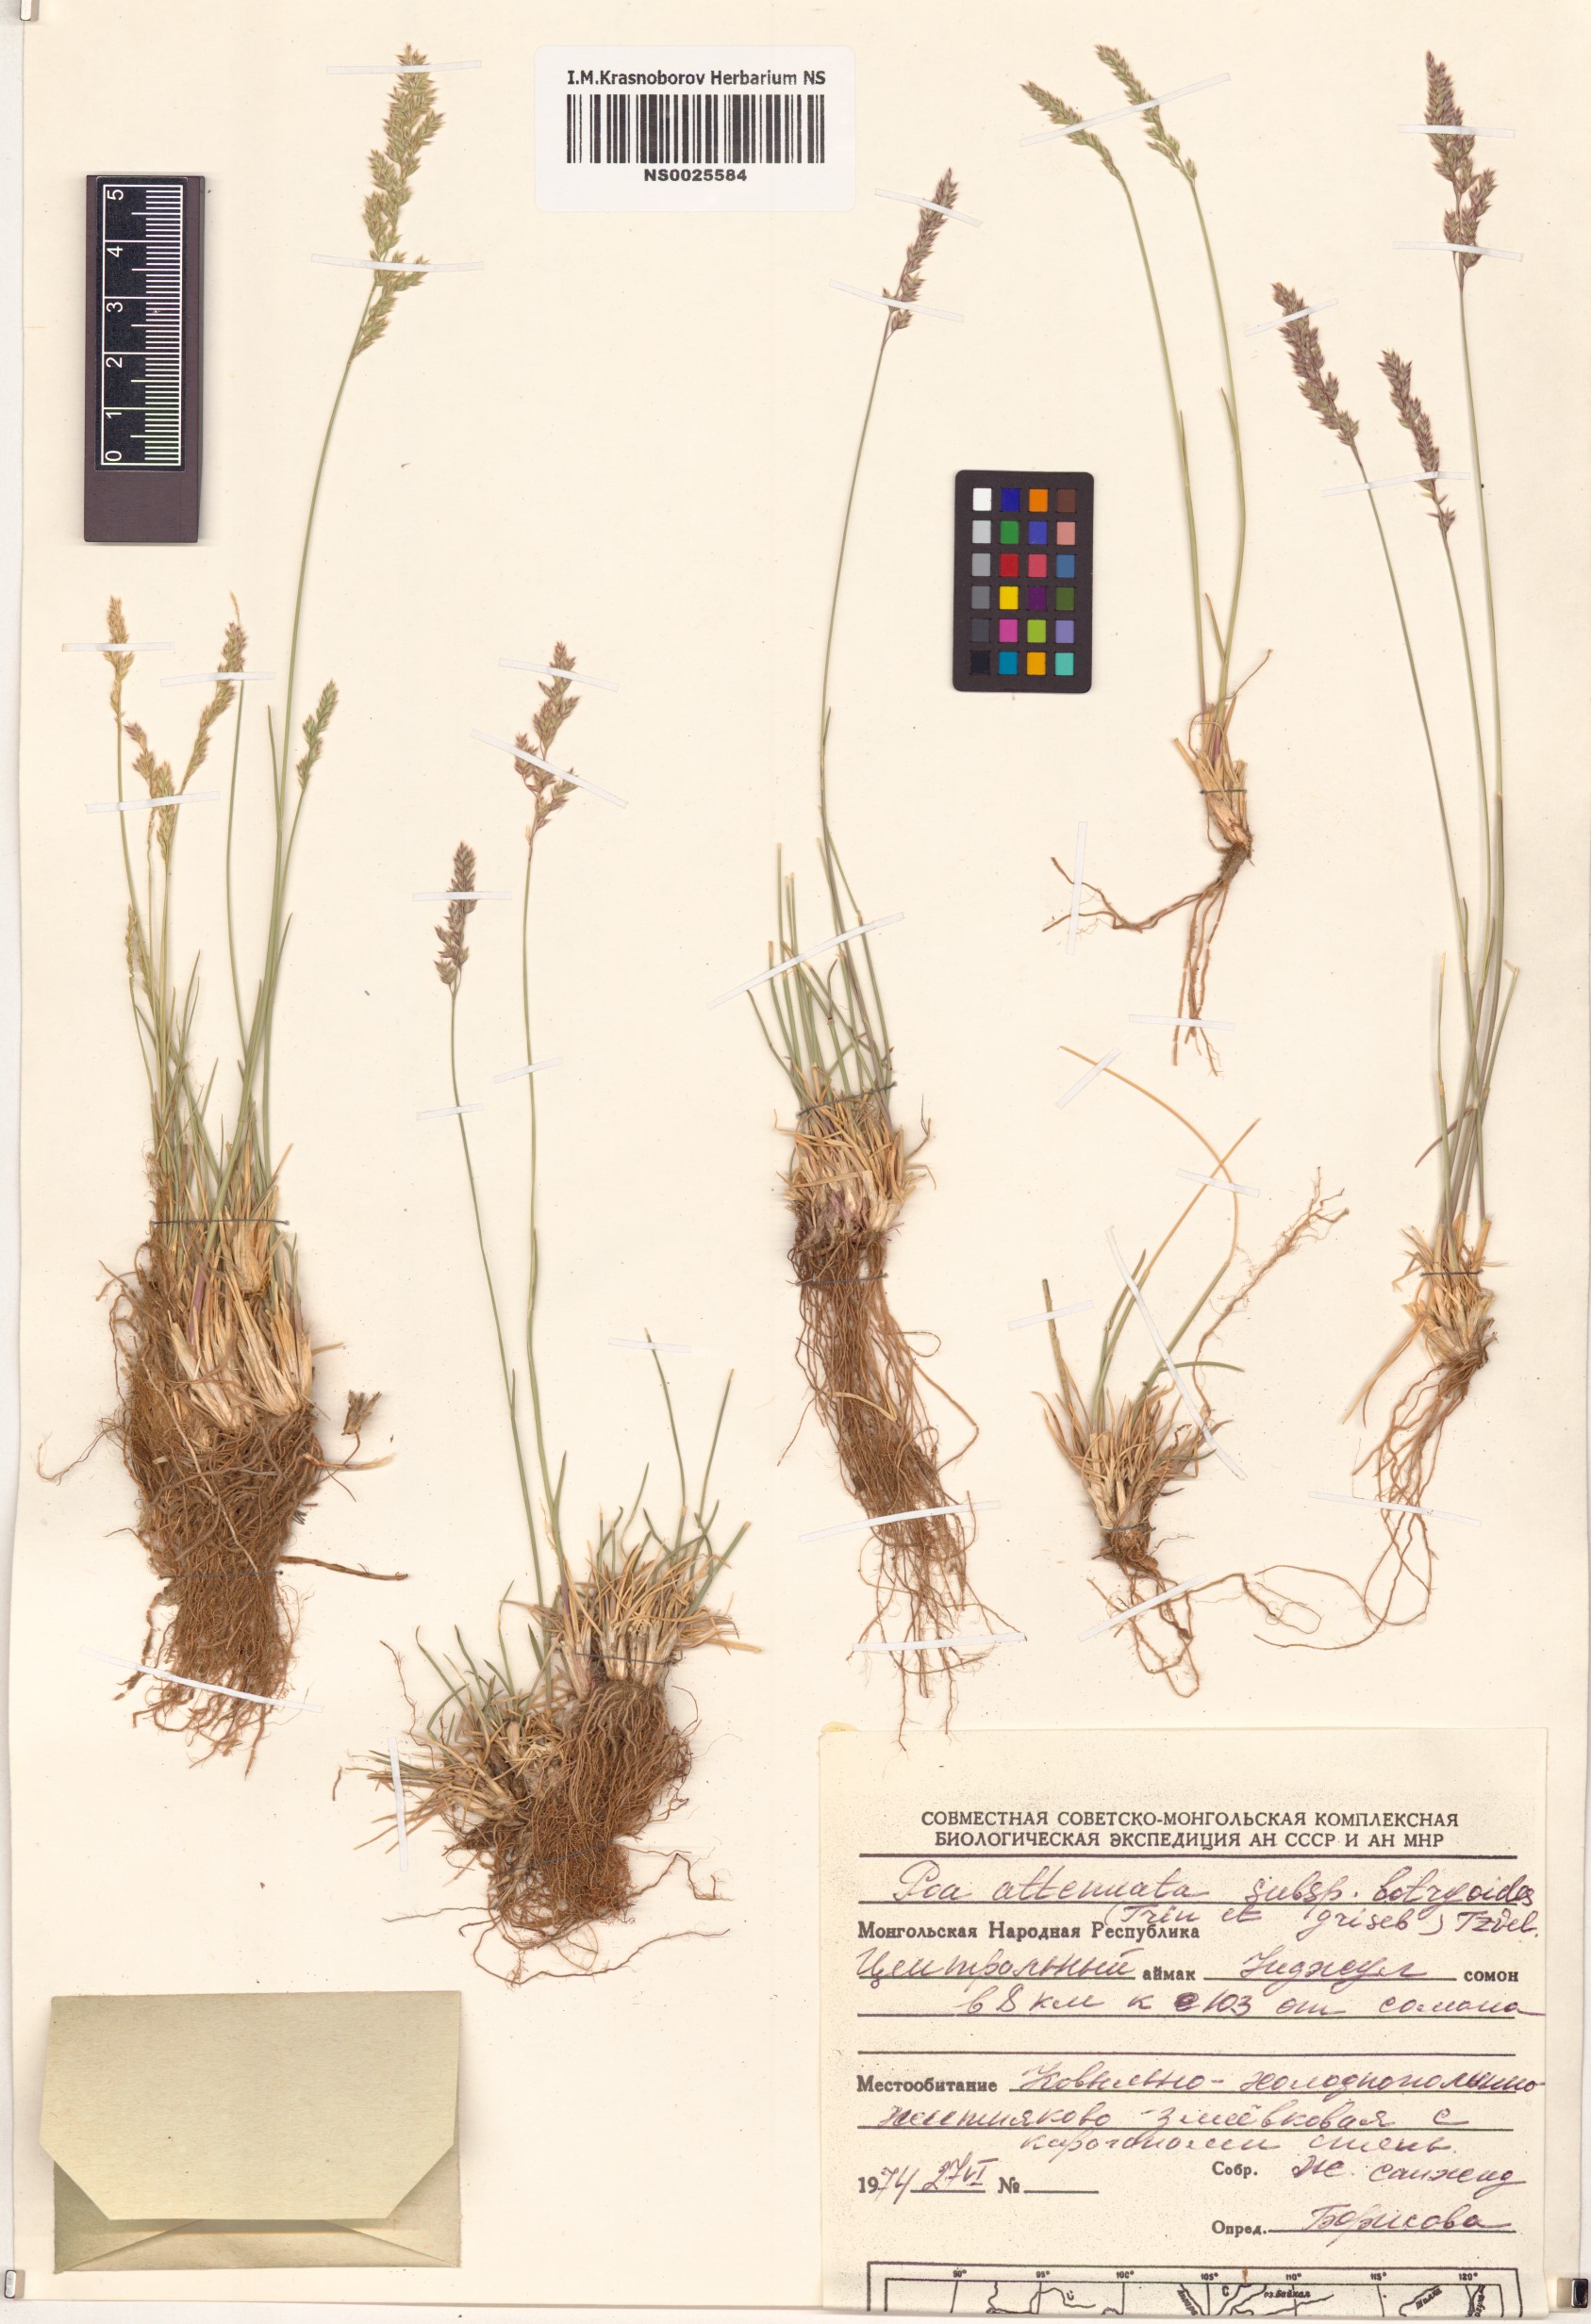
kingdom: Plantae
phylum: Tracheophyta
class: Liliopsida
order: Poales
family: Poaceae
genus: Poa
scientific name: Poa attenuata
